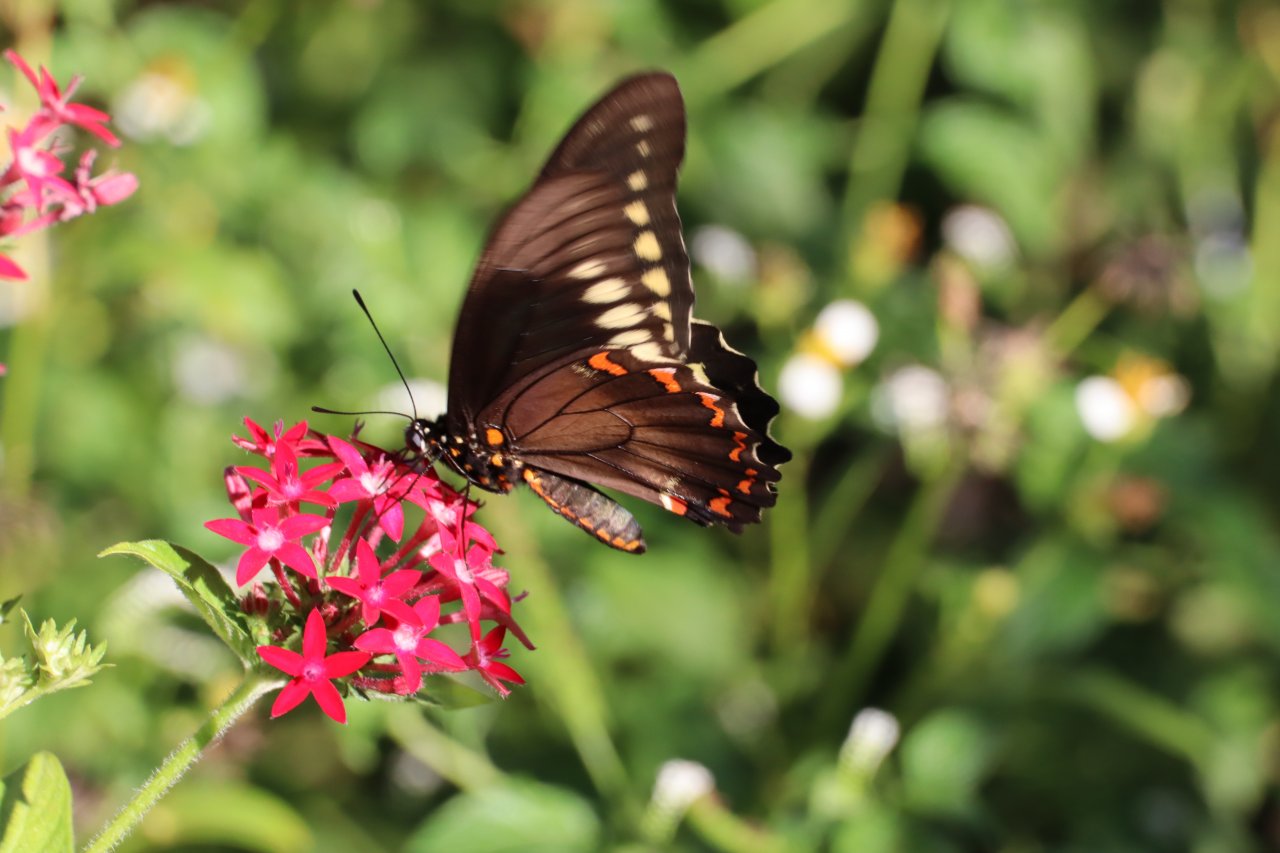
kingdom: Animalia
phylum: Arthropoda
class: Insecta
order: Lepidoptera
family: Papilionidae
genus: Battus
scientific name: Battus polydamas
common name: Polydamas Swallowtail
